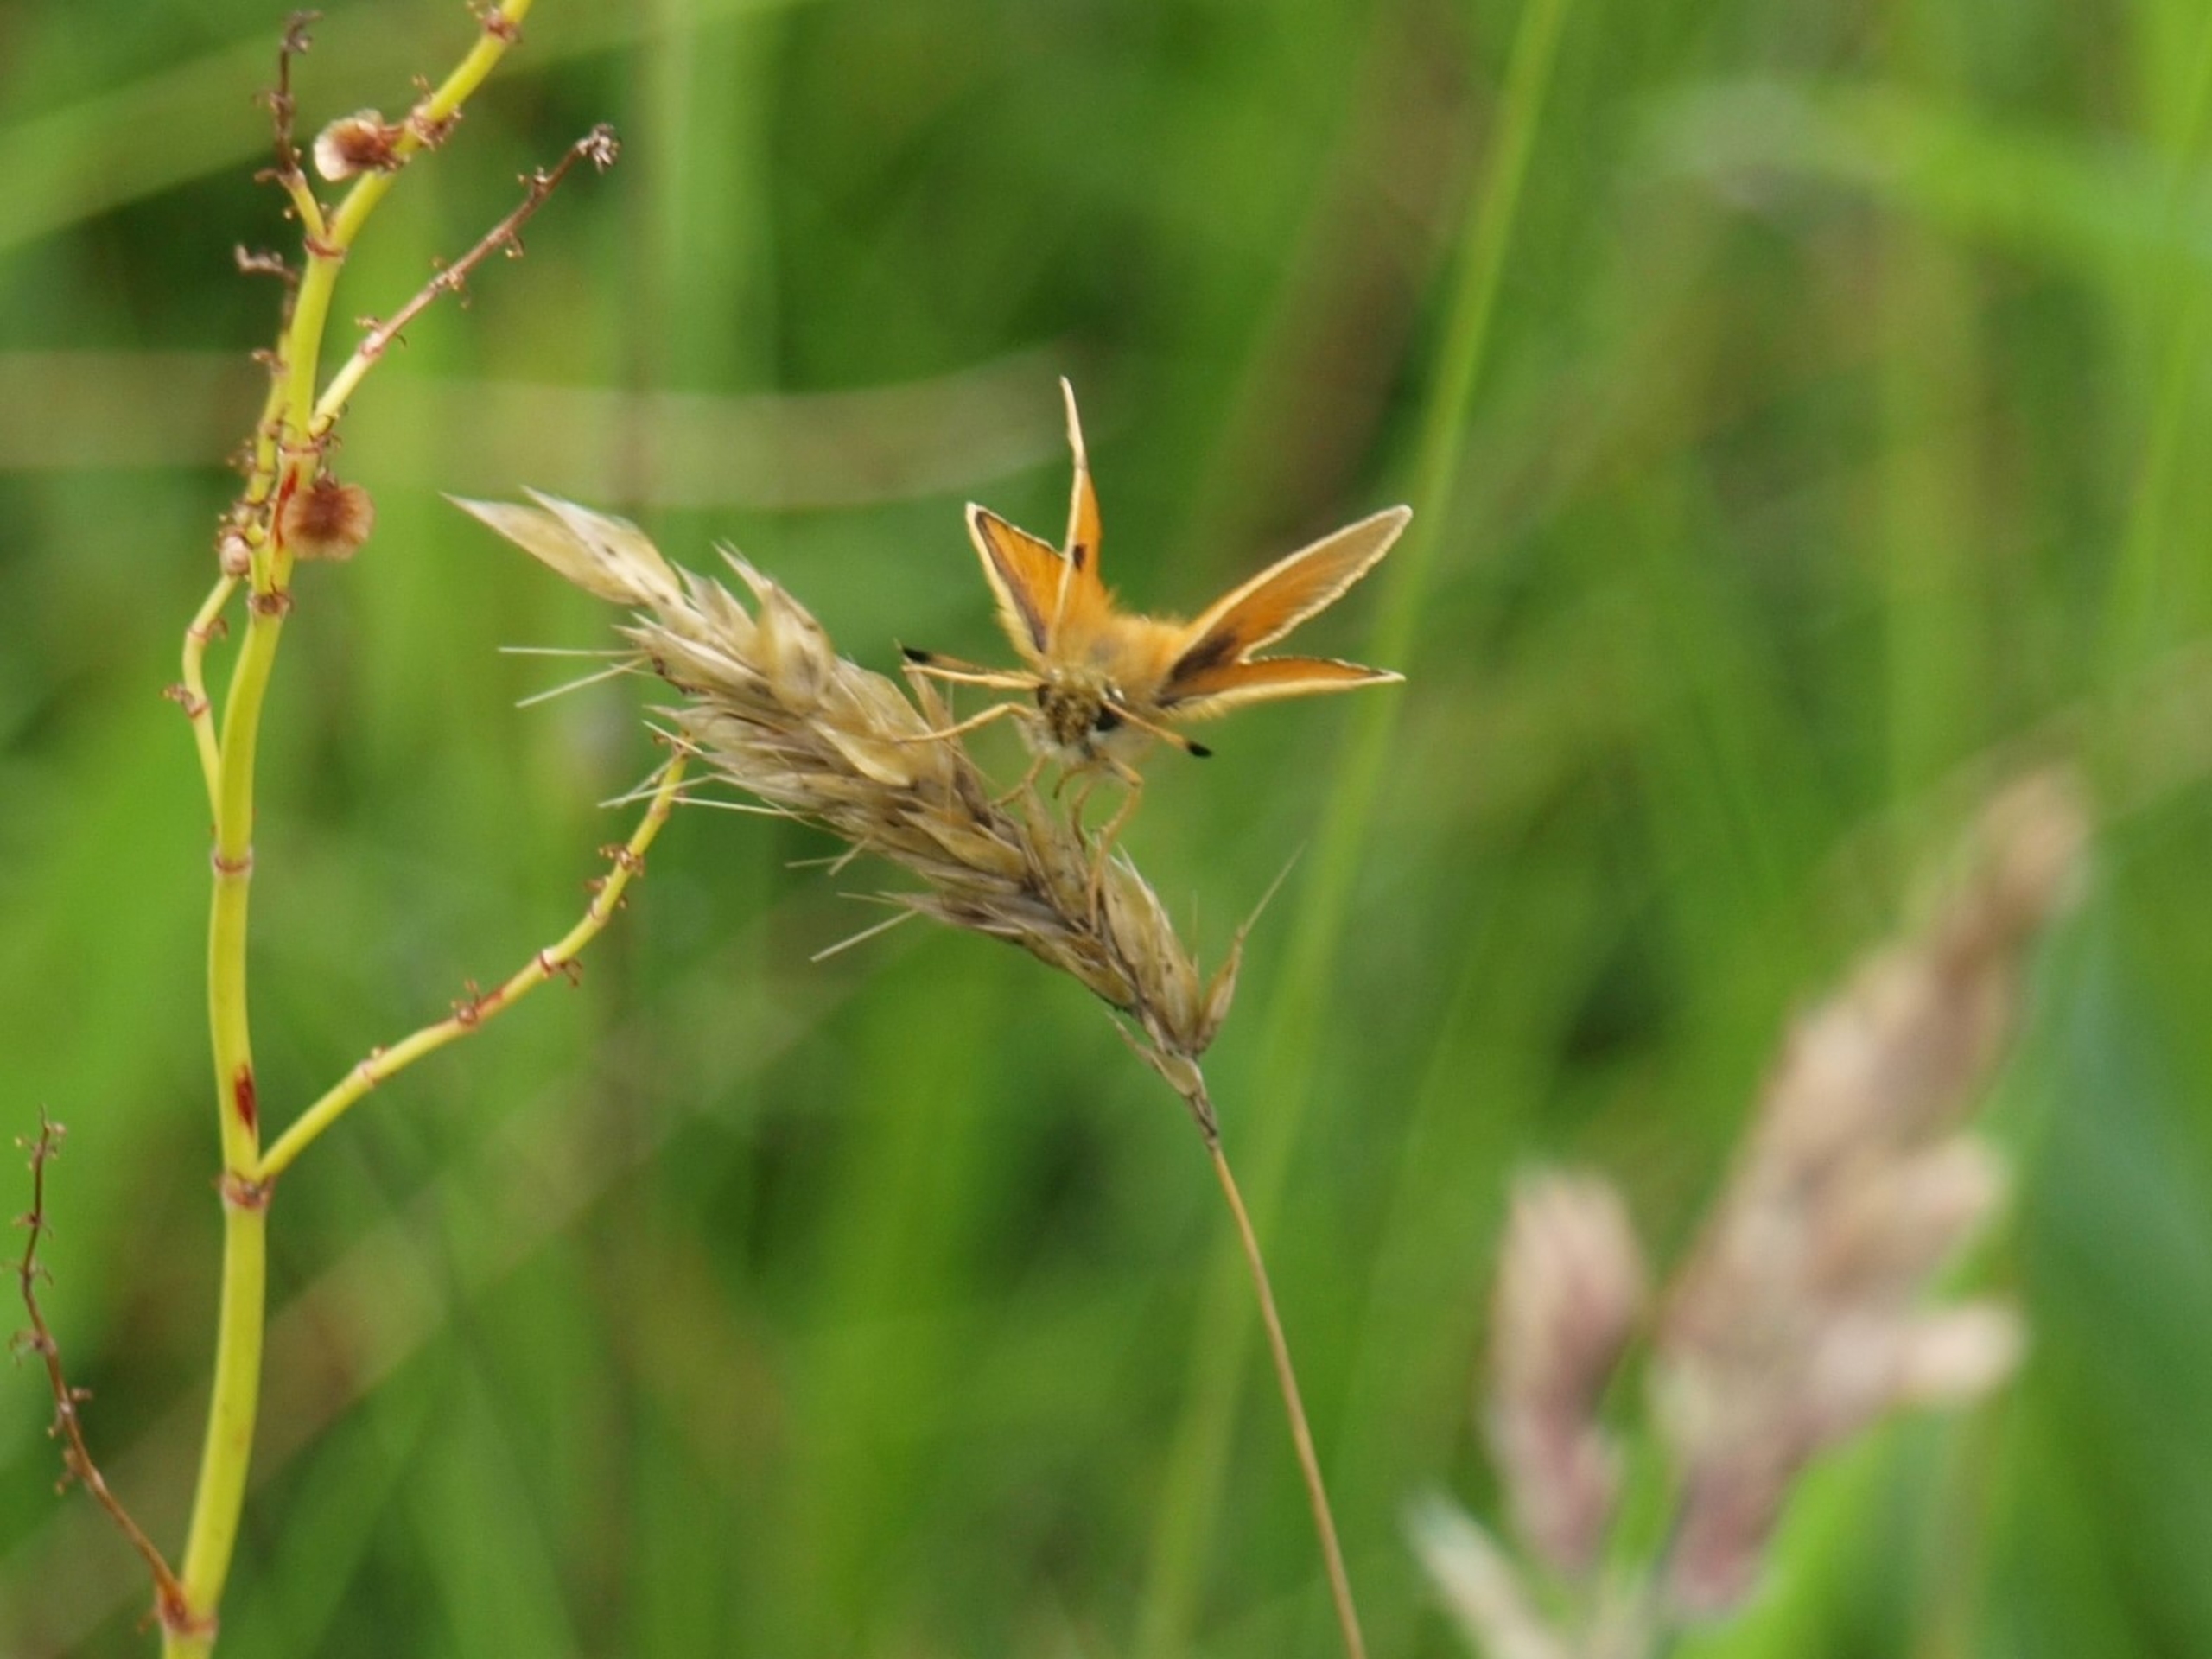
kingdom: Animalia
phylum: Arthropoda
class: Insecta
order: Lepidoptera
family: Hesperiidae
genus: Thymelicus
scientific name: Thymelicus lineola
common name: Stregbredpande
